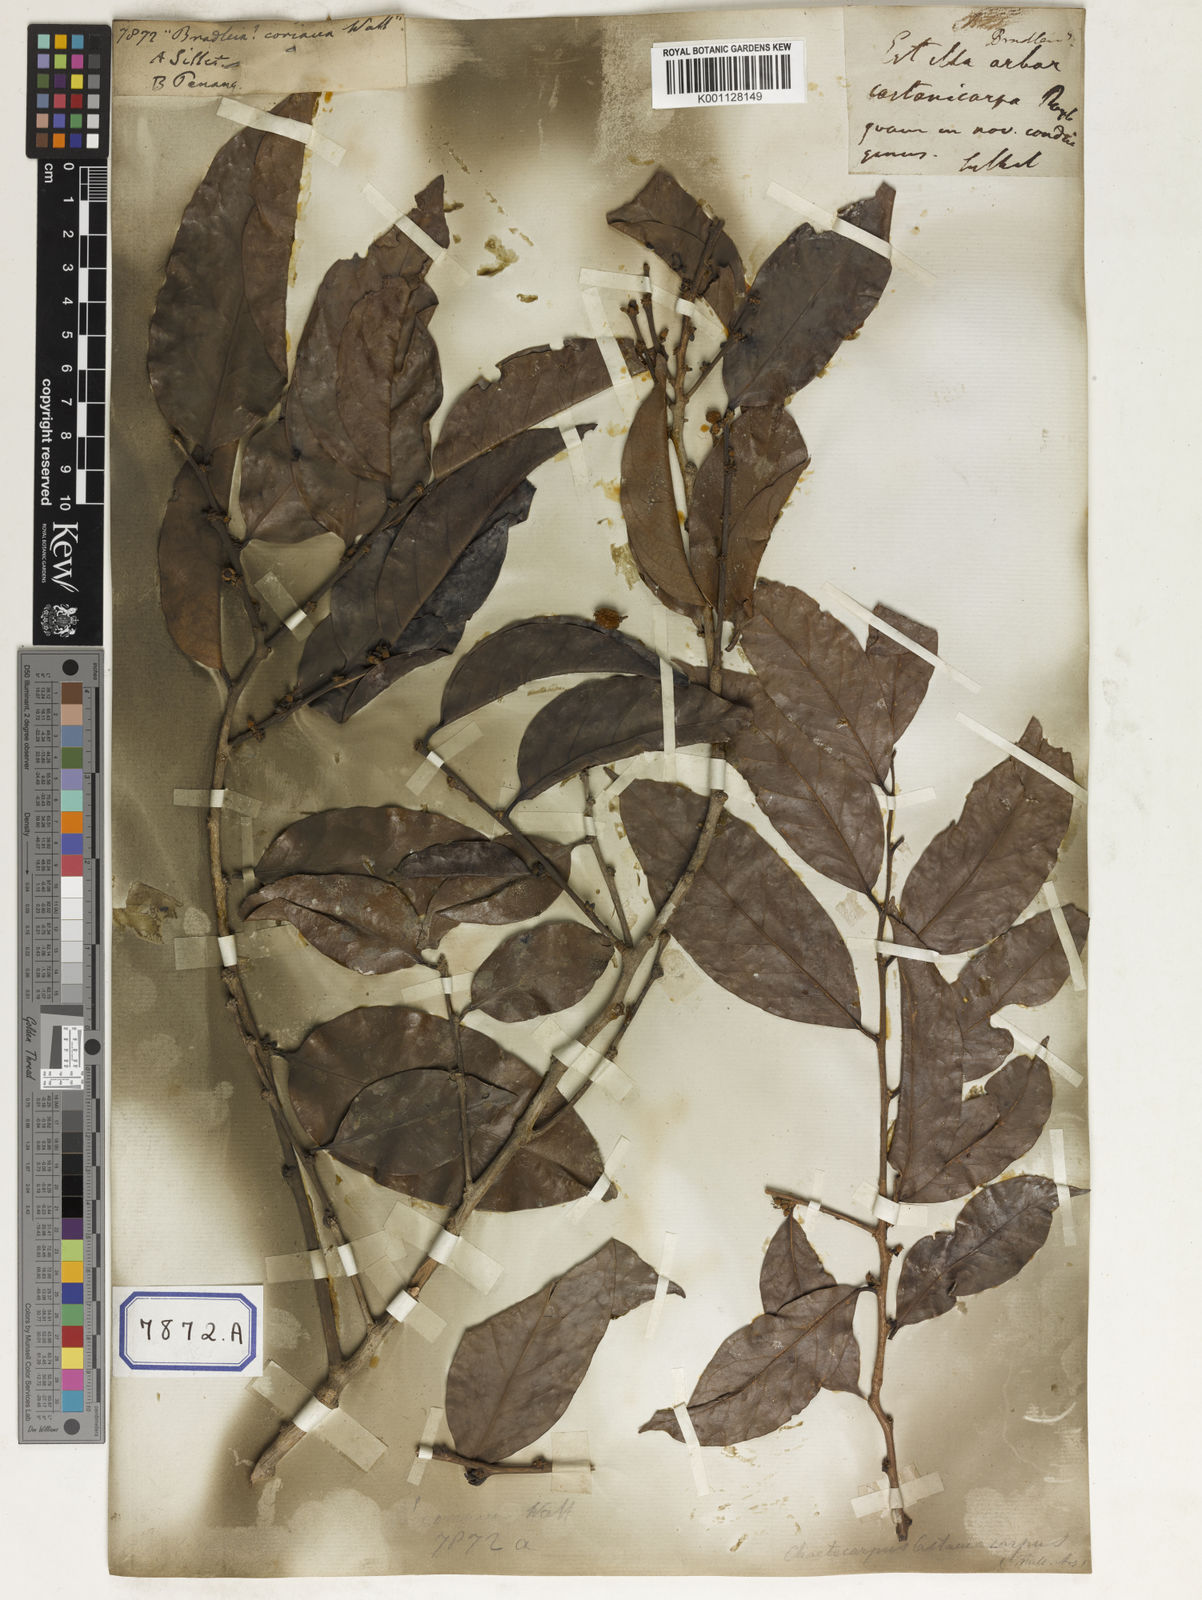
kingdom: Plantae
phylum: Tracheophyta
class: Magnoliopsida
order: Malpighiales
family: Euphorbiaceae
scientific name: Euphorbiaceae
